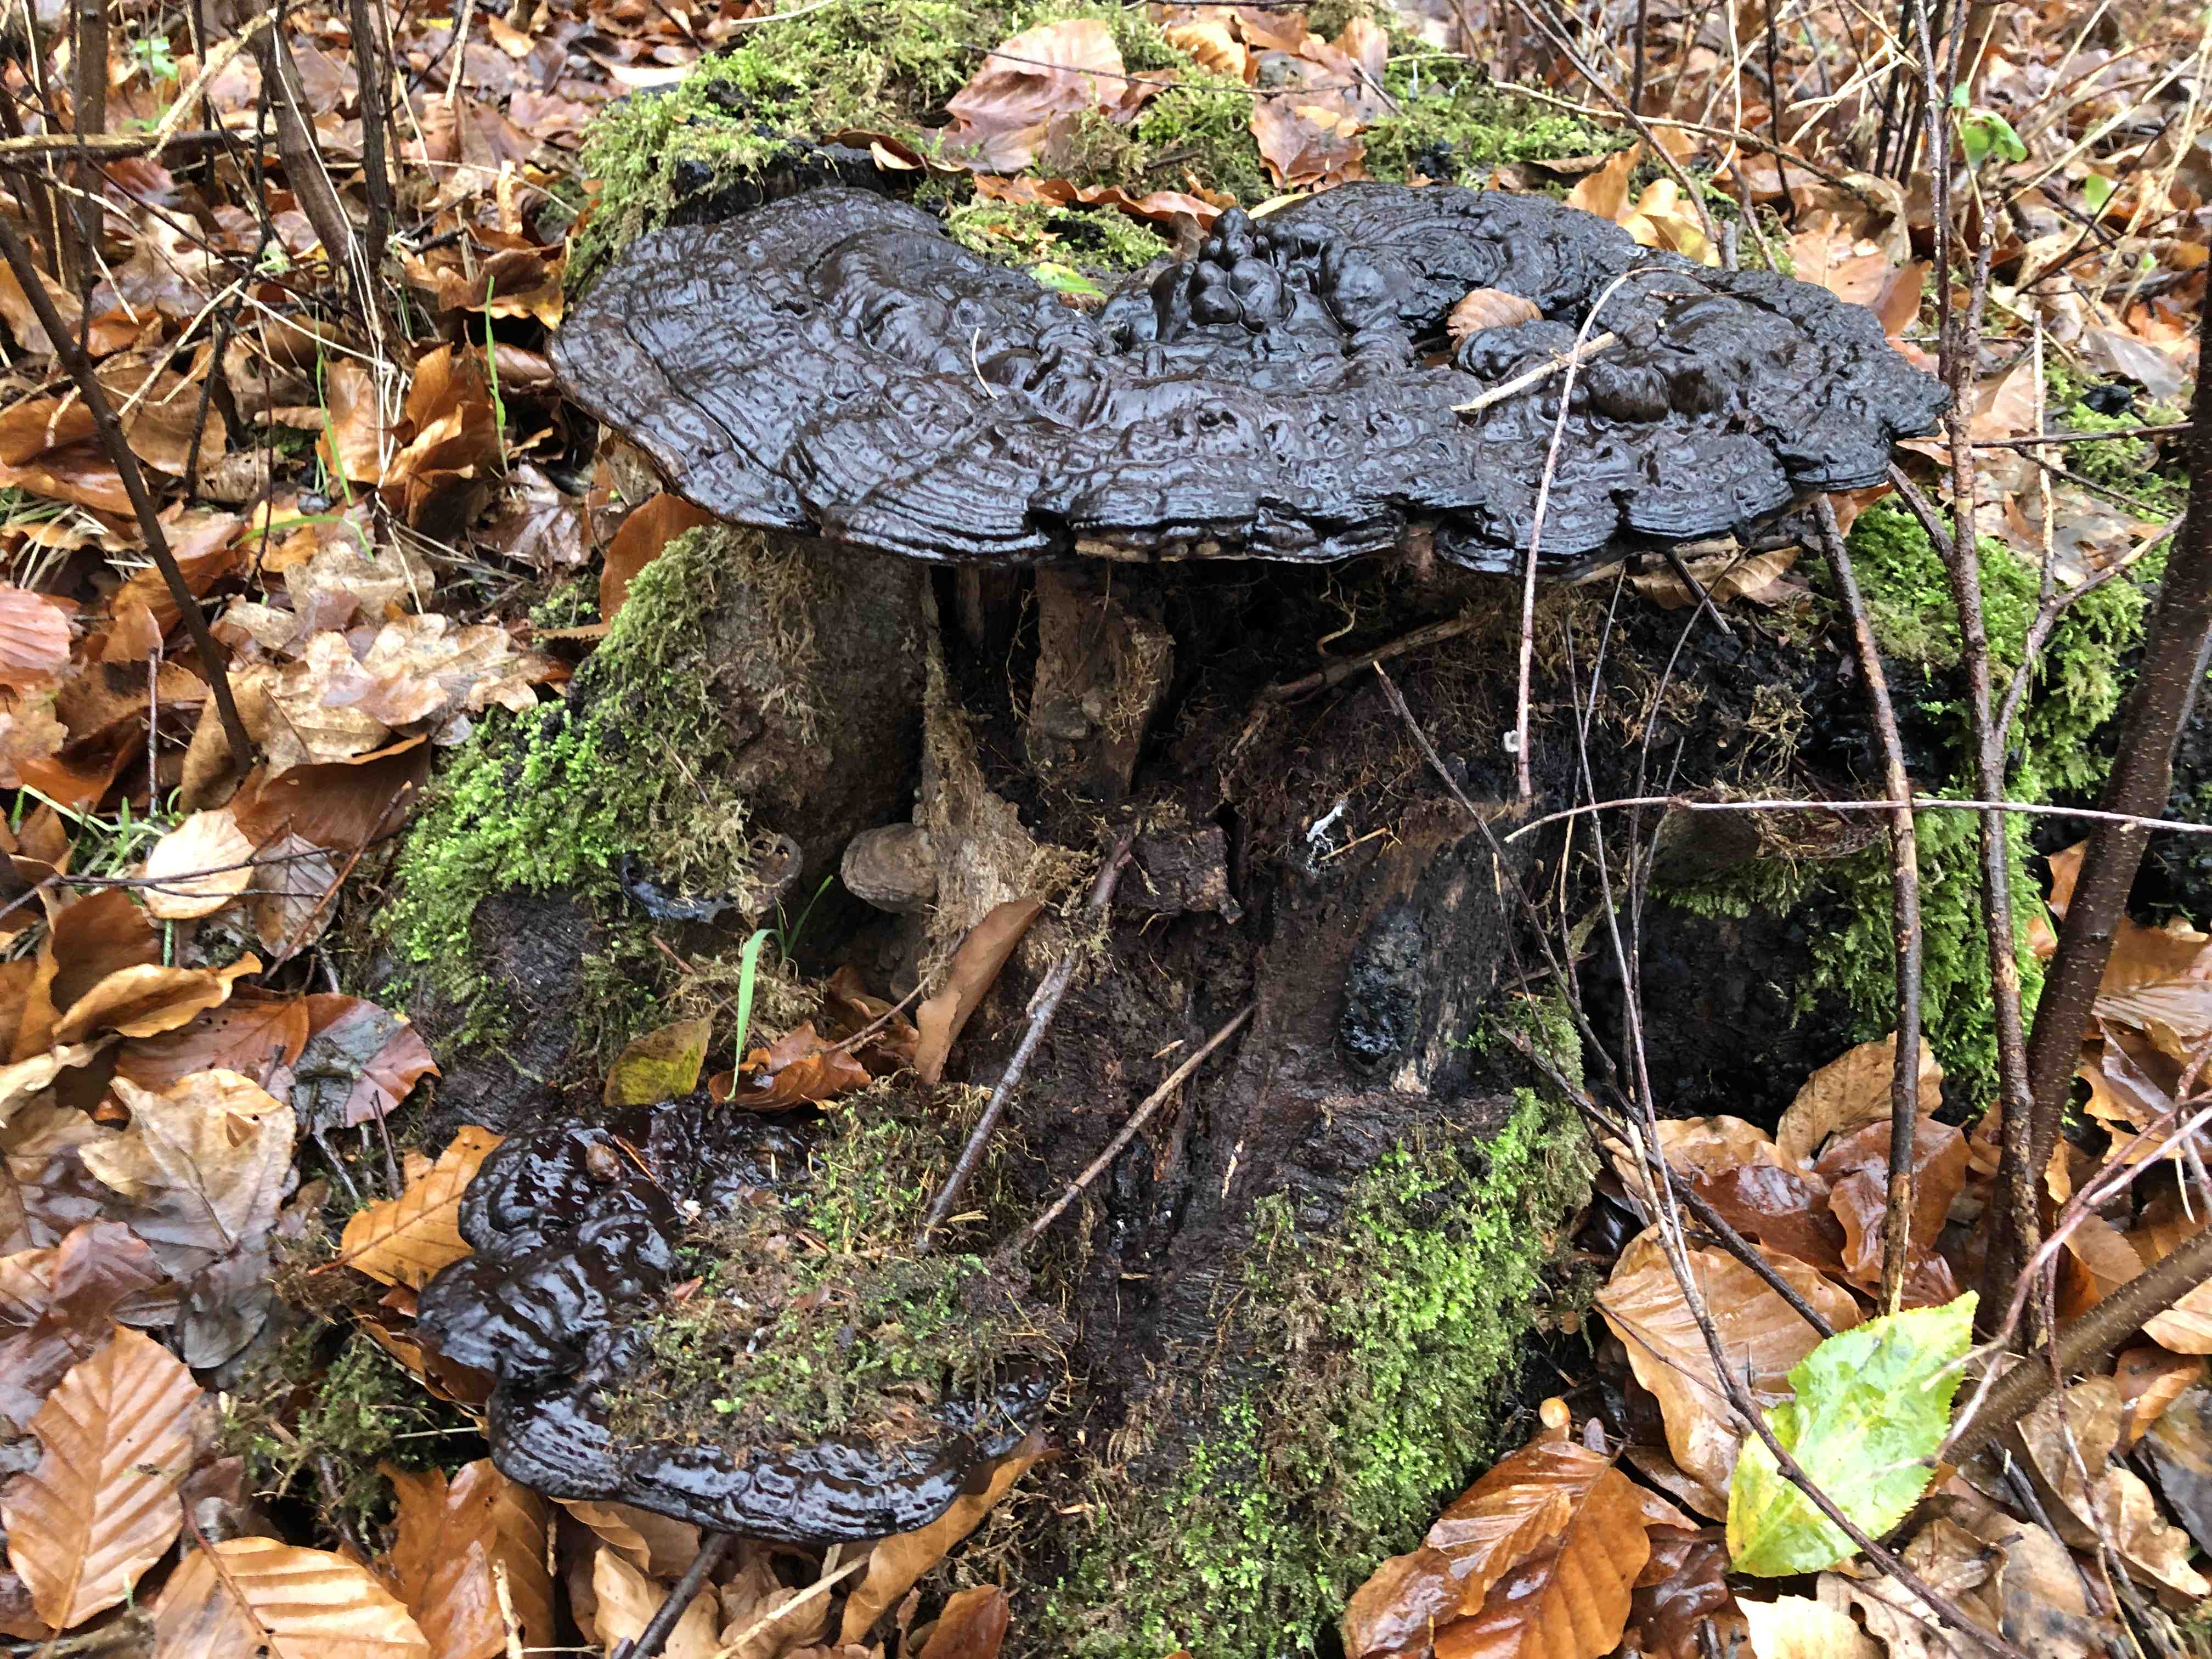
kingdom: Fungi
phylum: Basidiomycota
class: Agaricomycetes
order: Polyporales
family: Polyporaceae
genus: Ganoderma
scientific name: Ganoderma applanatum
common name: flad lakporesvamp
